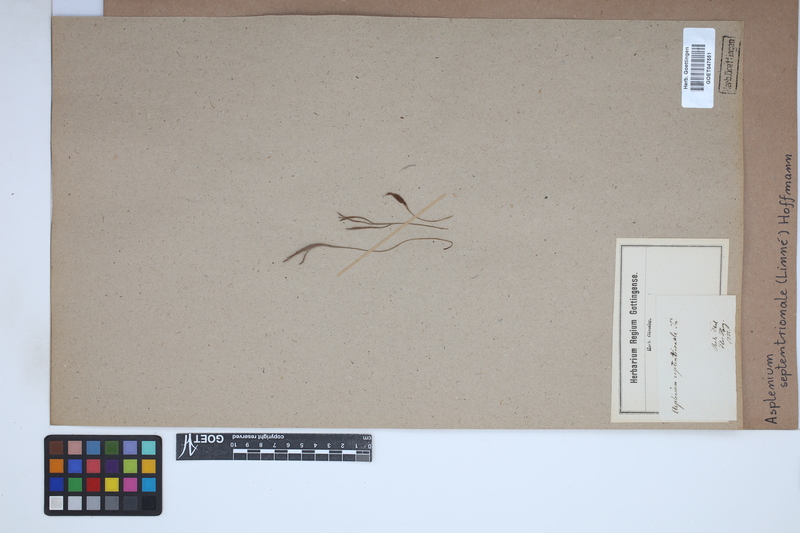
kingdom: Plantae
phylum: Tracheophyta
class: Polypodiopsida
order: Polypodiales
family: Aspleniaceae
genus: Asplenium
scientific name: Asplenium septentrionale
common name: Forked spleenwort
